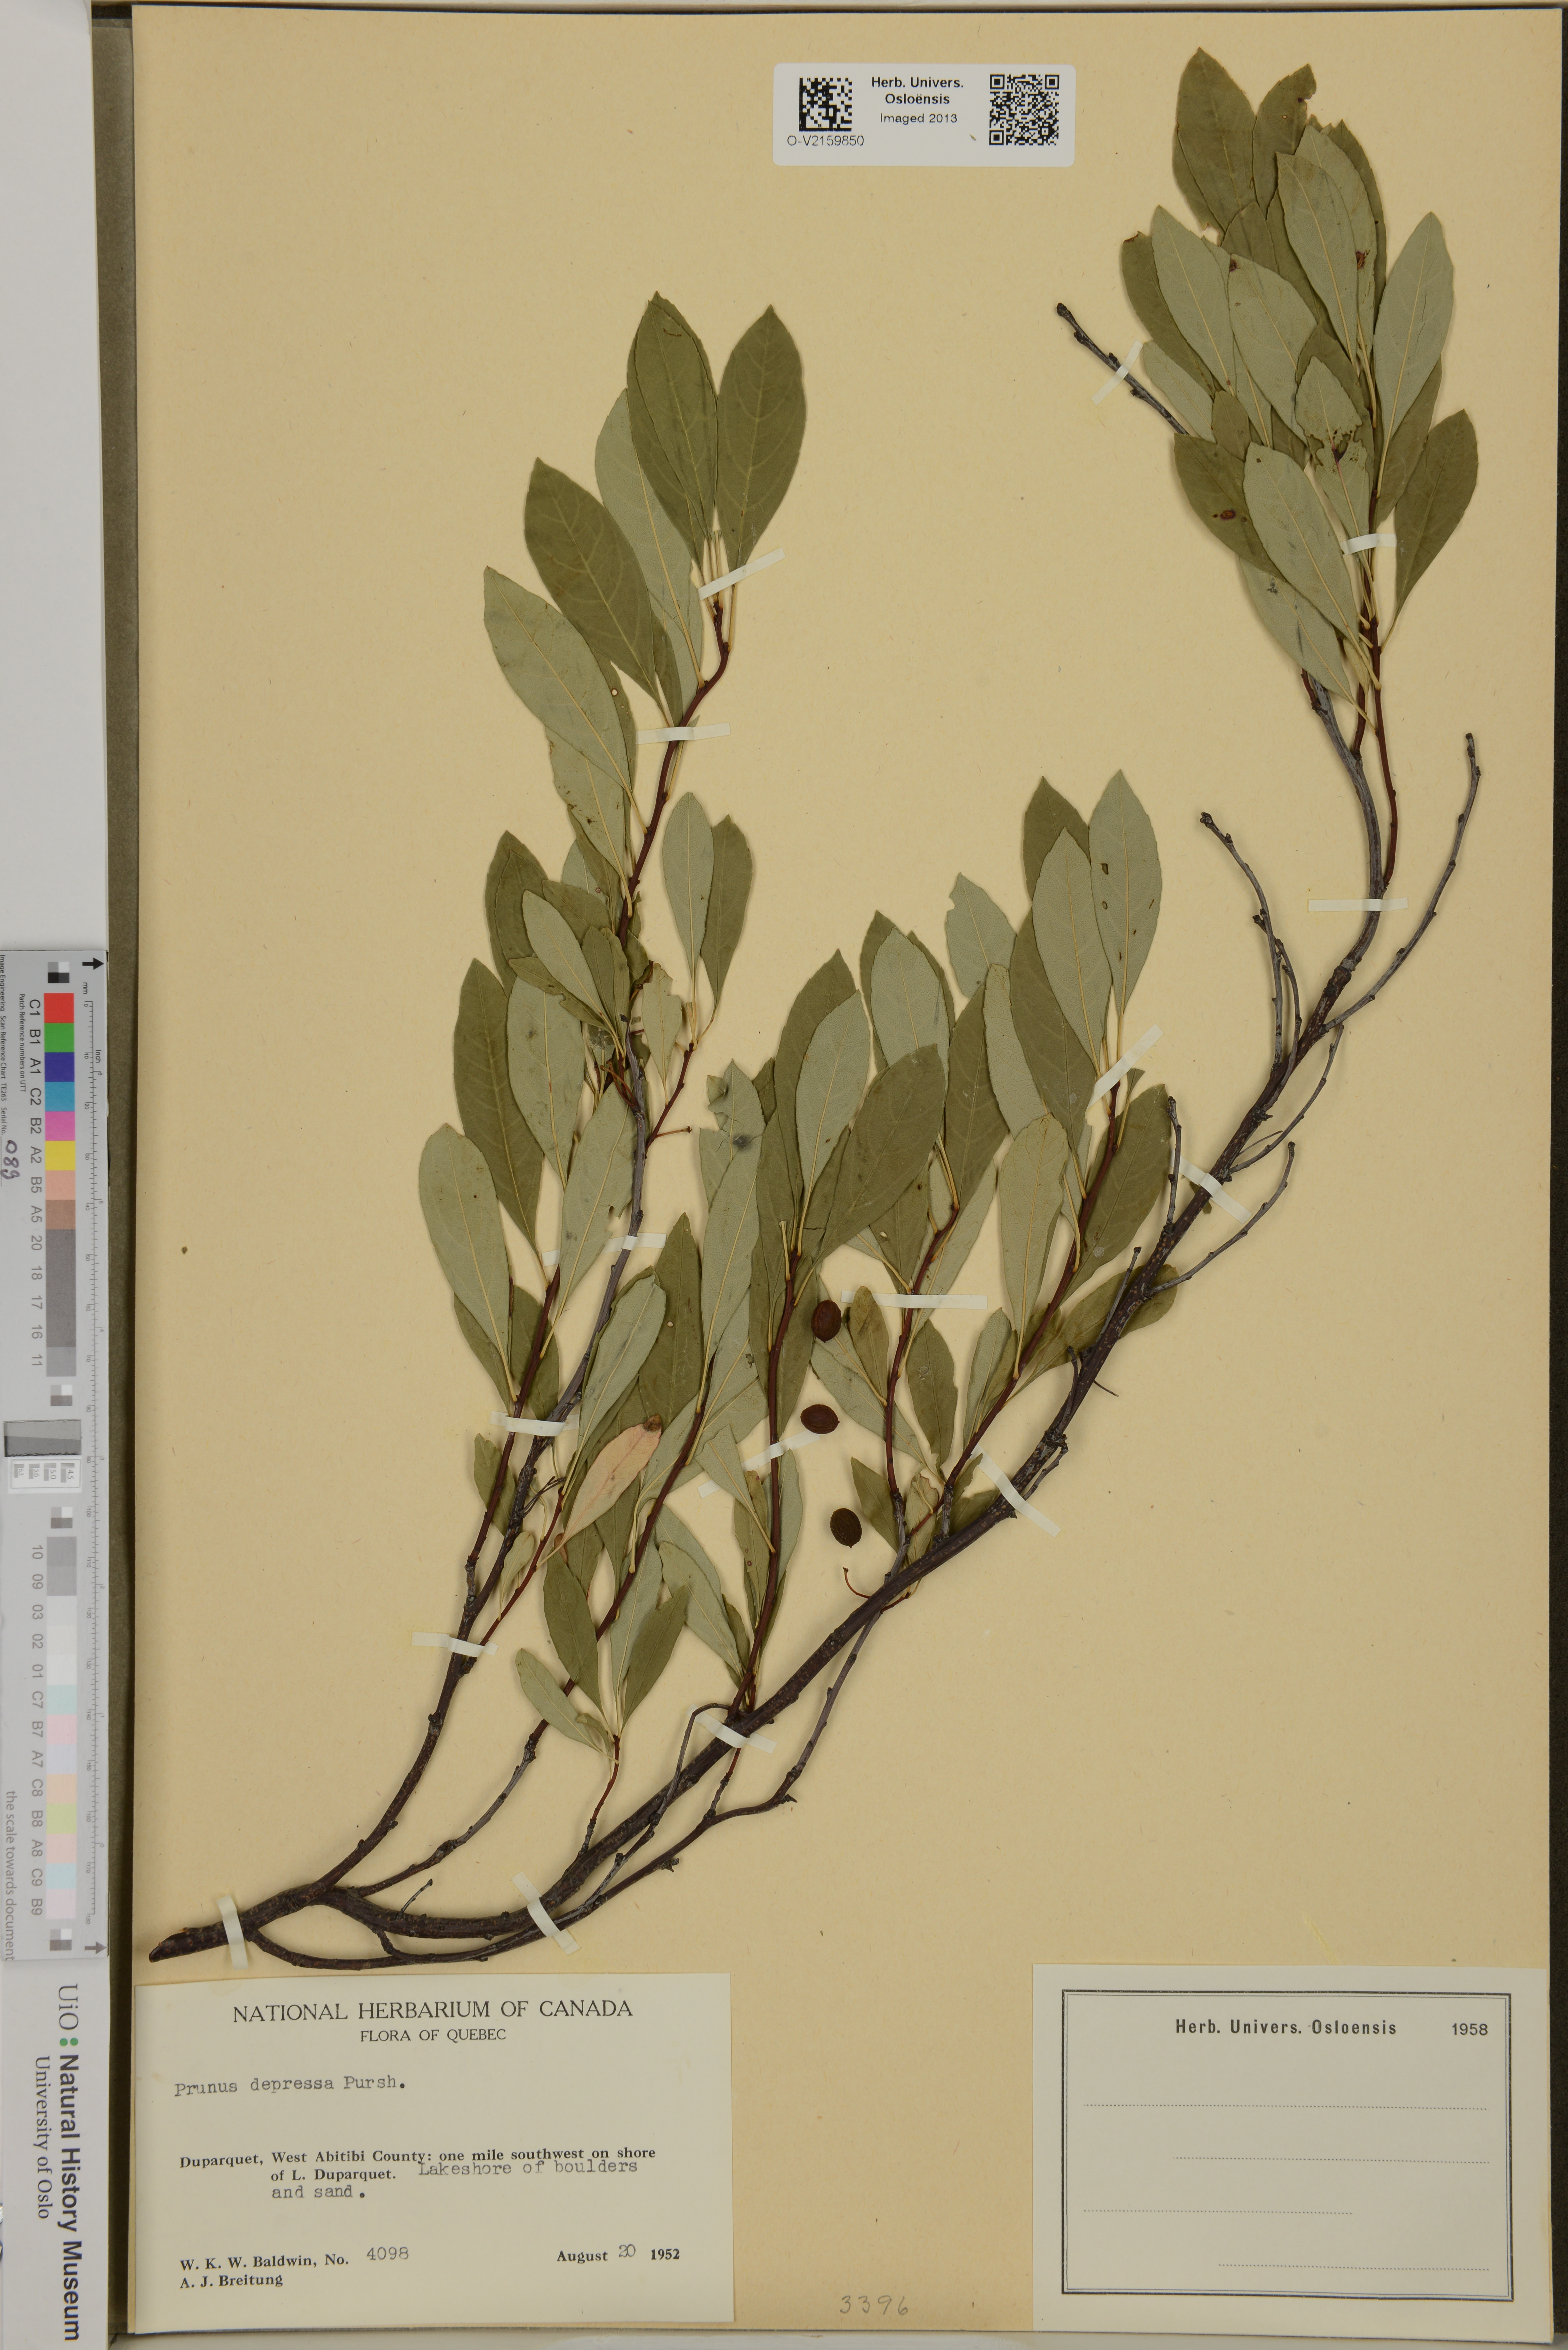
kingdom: Plantae
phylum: Tracheophyta
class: Magnoliopsida
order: Rosales
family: Rosaceae
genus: Prunus
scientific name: Prunus depressa
